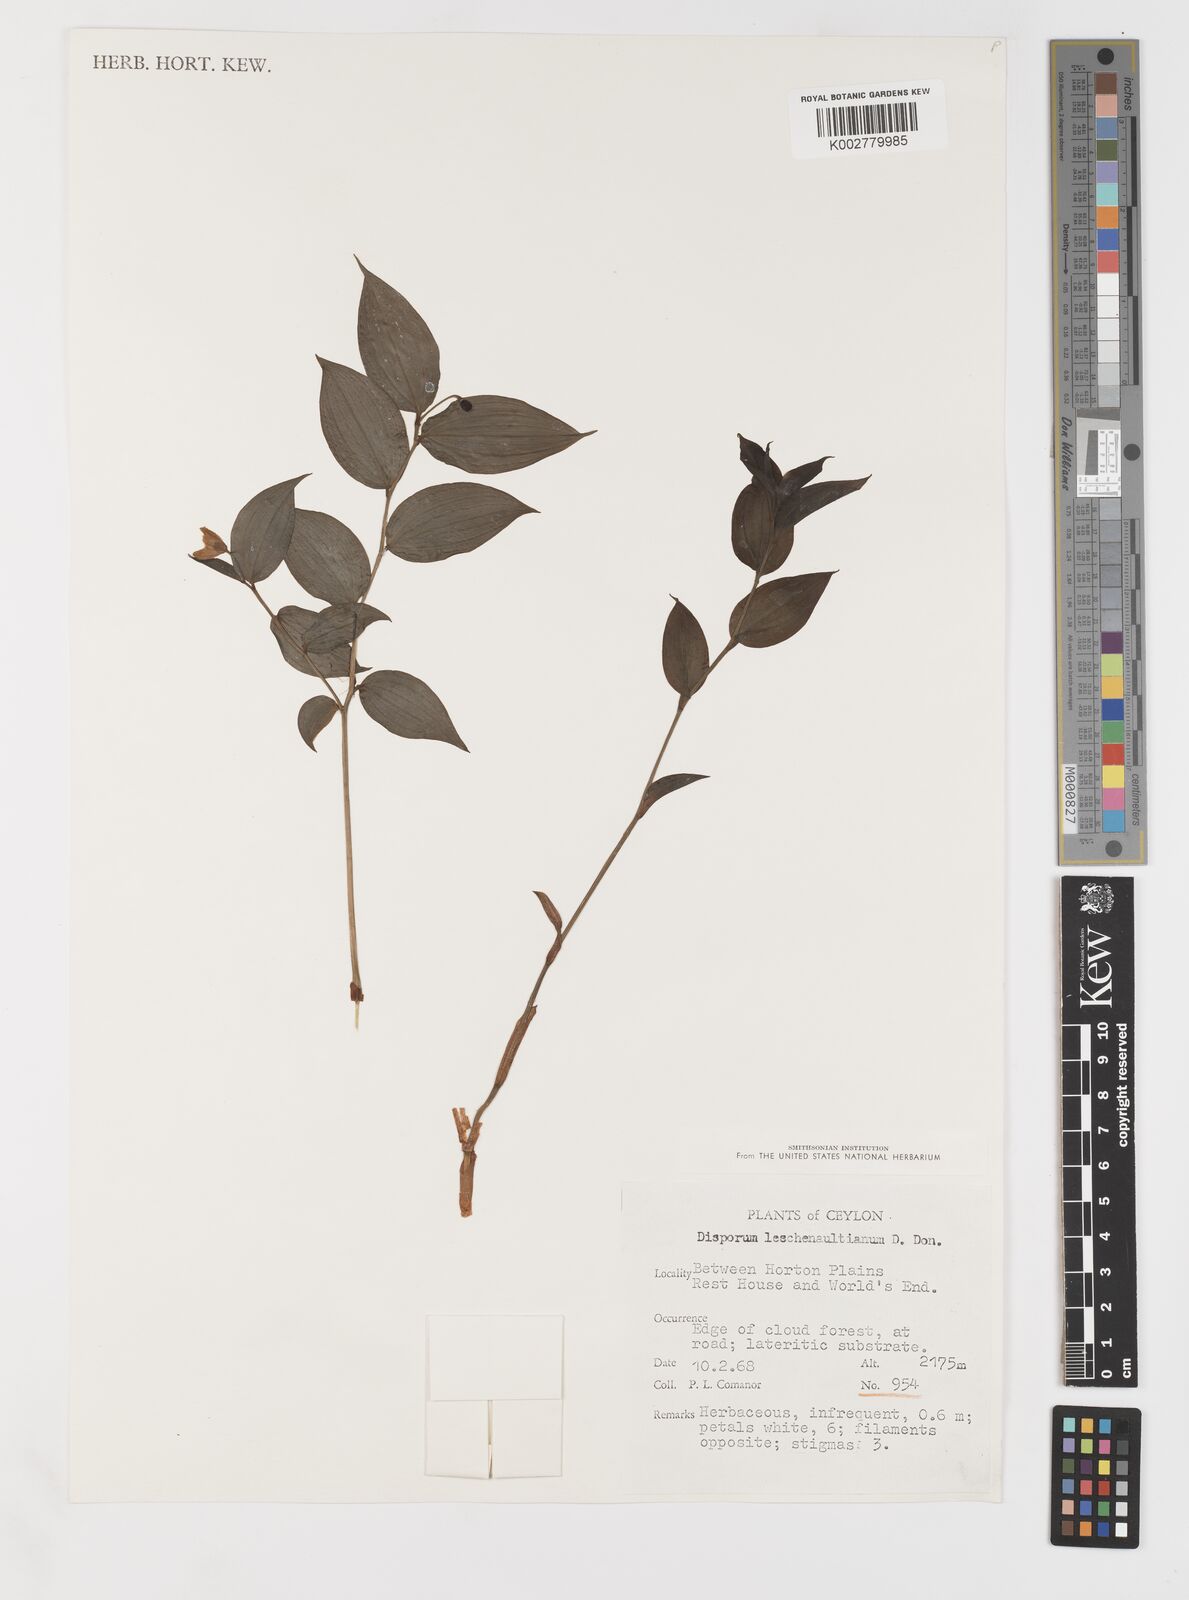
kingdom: Plantae
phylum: Tracheophyta
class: Liliopsida
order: Liliales
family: Colchicaceae
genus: Disporum
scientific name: Disporum cantoniense
